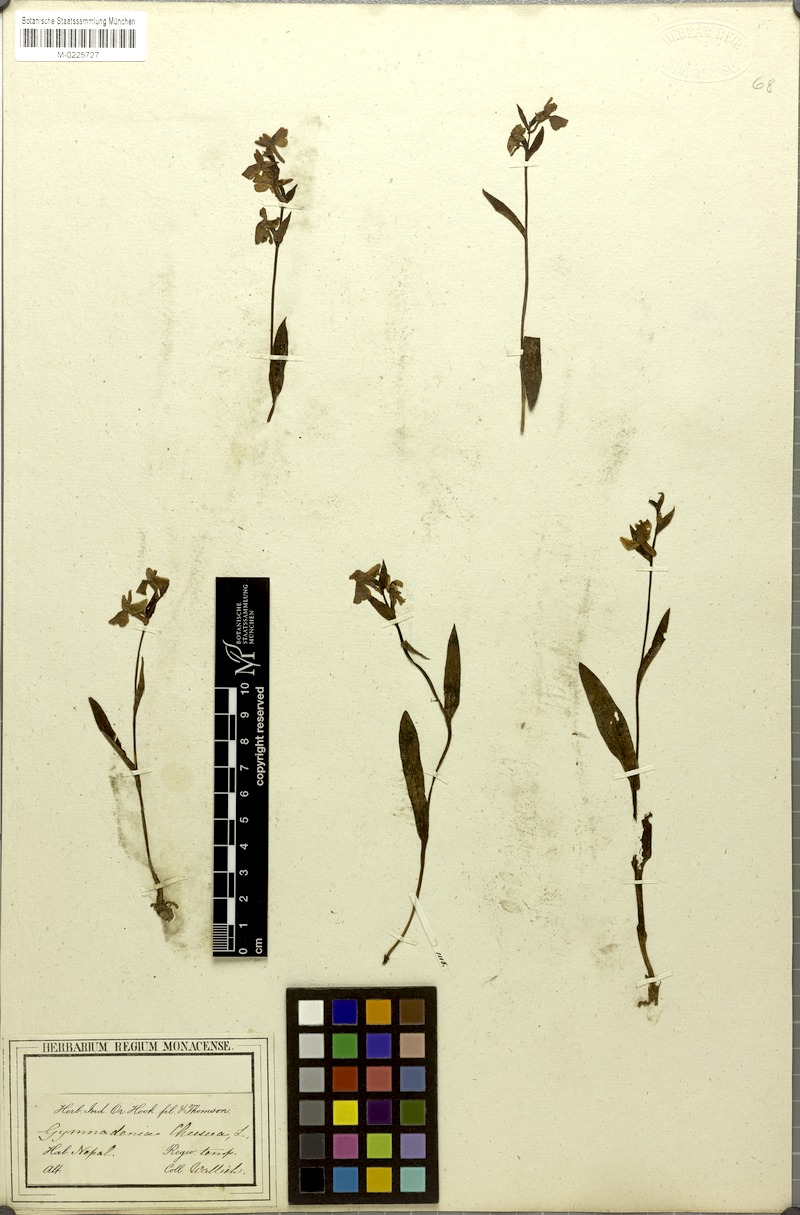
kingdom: Plantae
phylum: Tracheophyta
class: Liliopsida
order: Asparagales
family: Orchidaceae
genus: Hemipilia
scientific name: Hemipilia chusua
